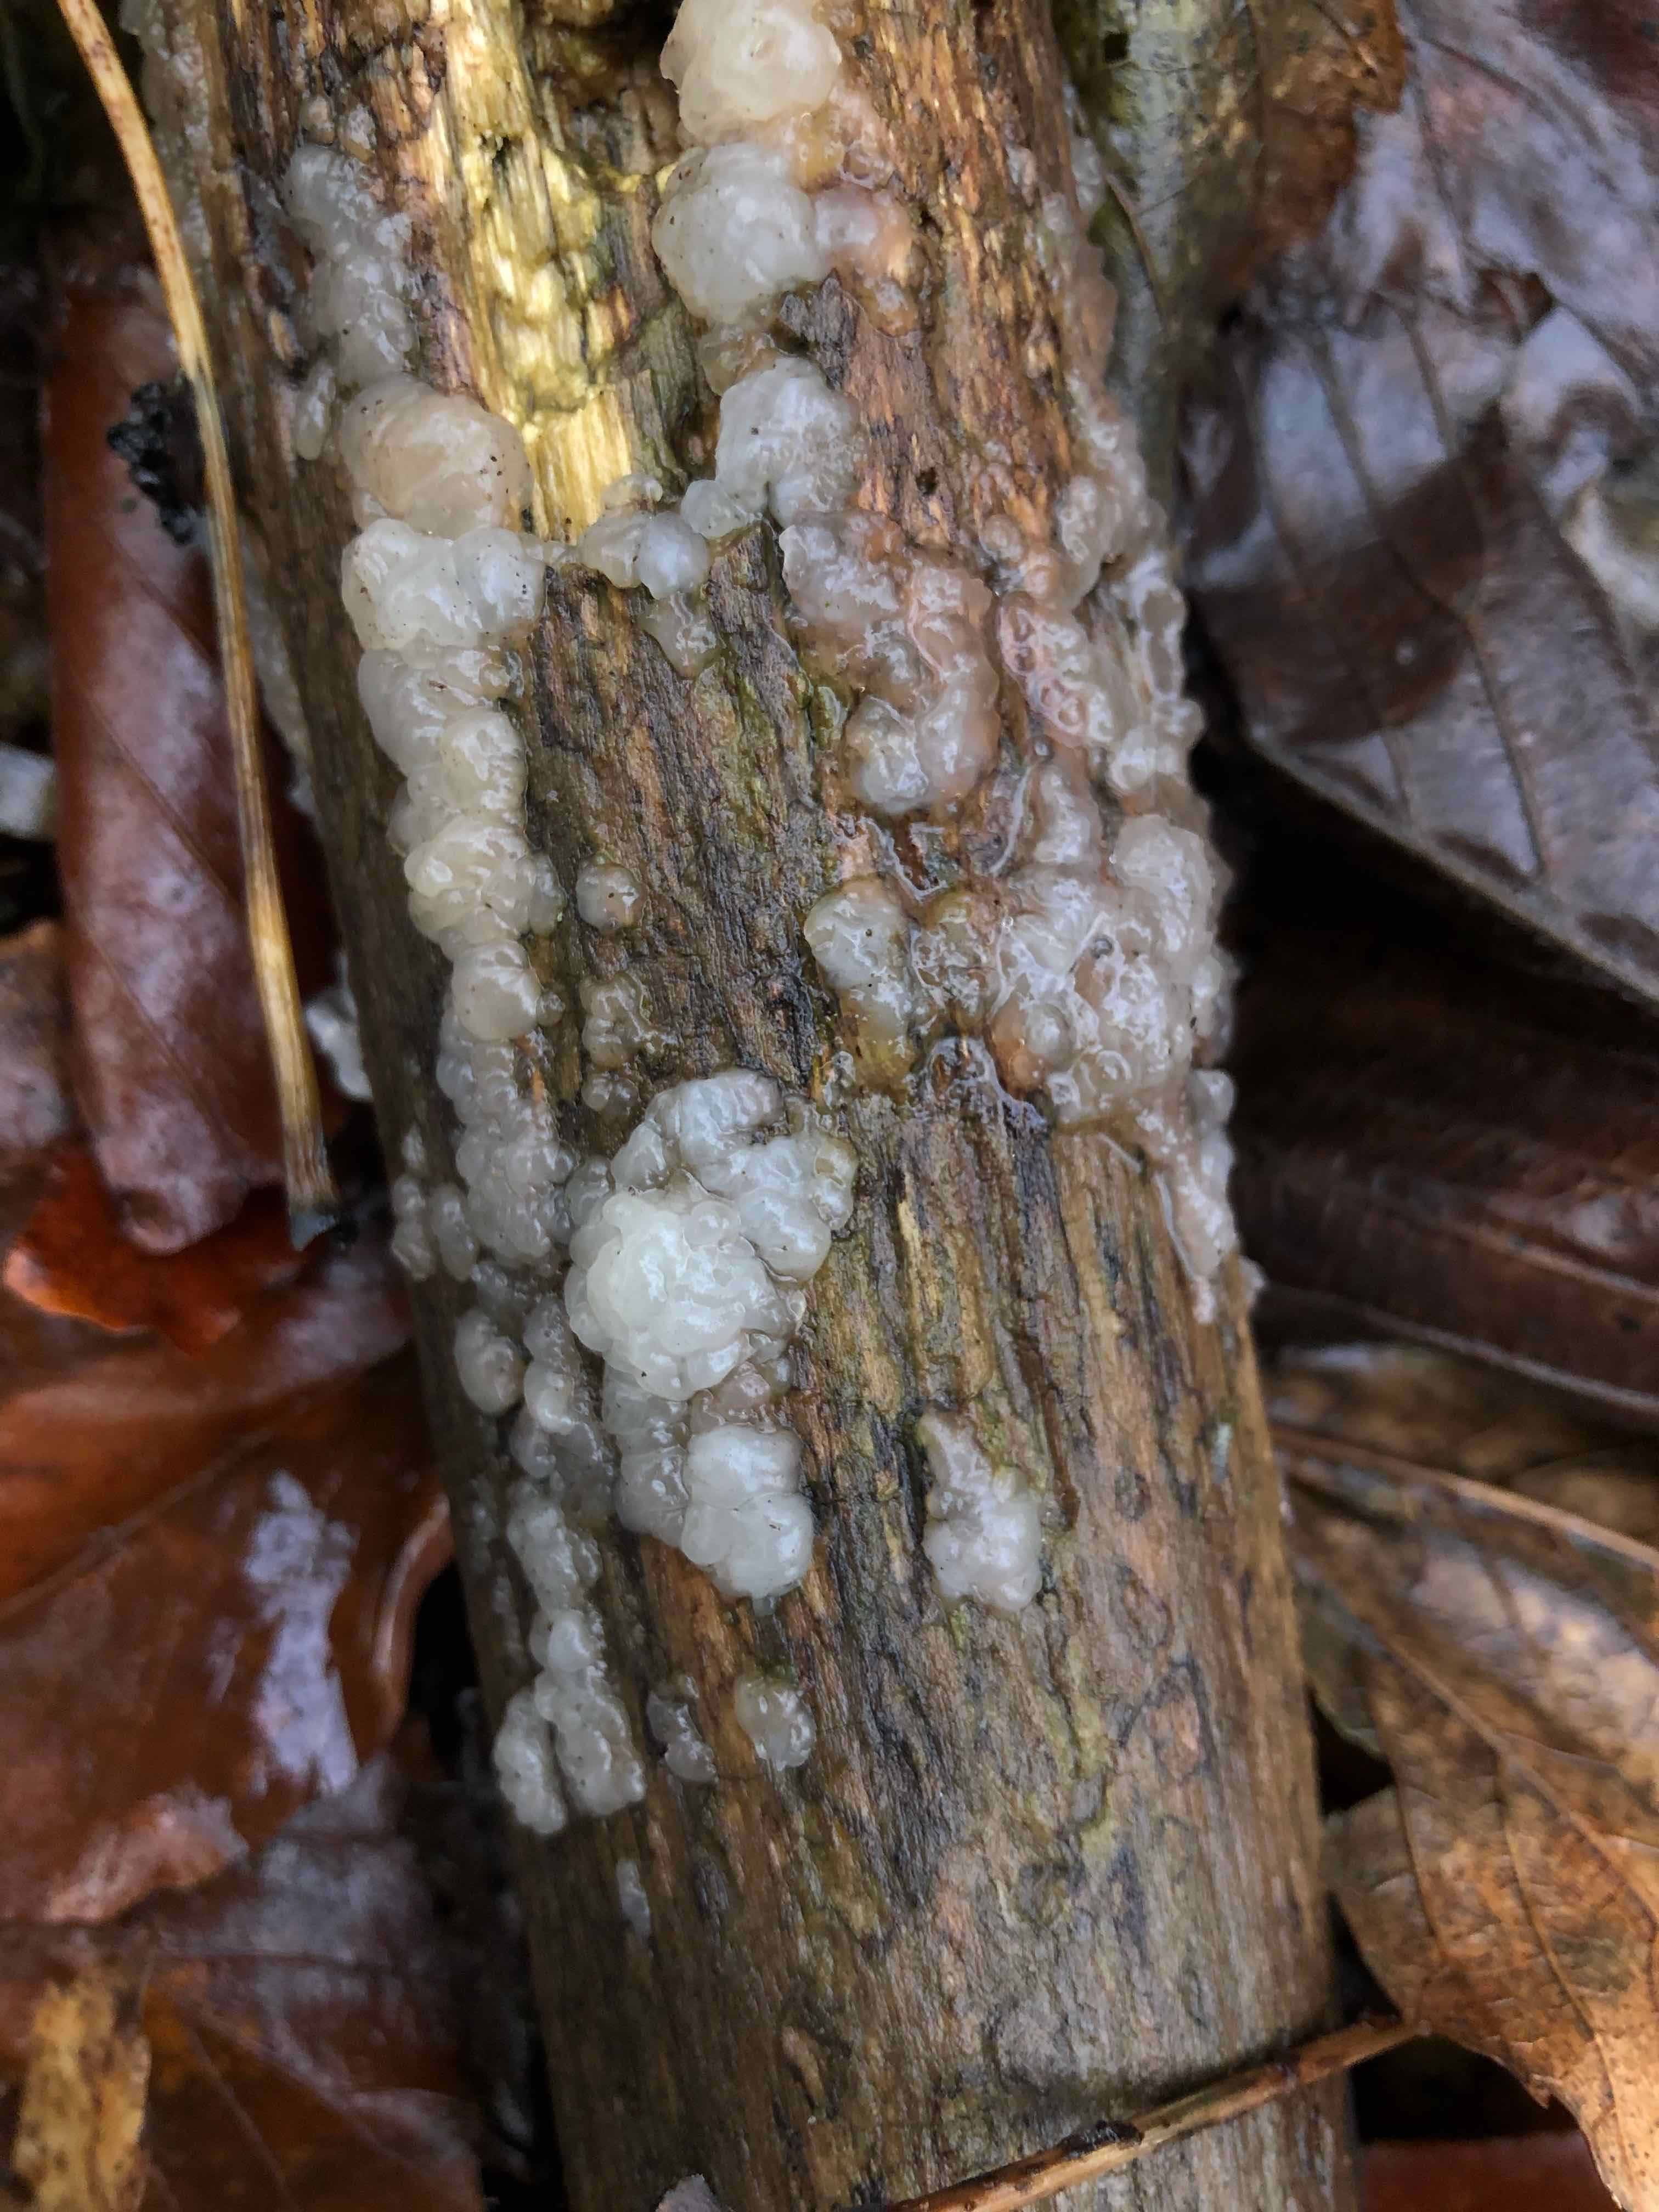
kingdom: Fungi
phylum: Basidiomycota
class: Agaricomycetes
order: Auriculariales
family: Auriculariaceae
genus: Exidia
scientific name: Exidia thuretiana
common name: hvidlig bævretop
